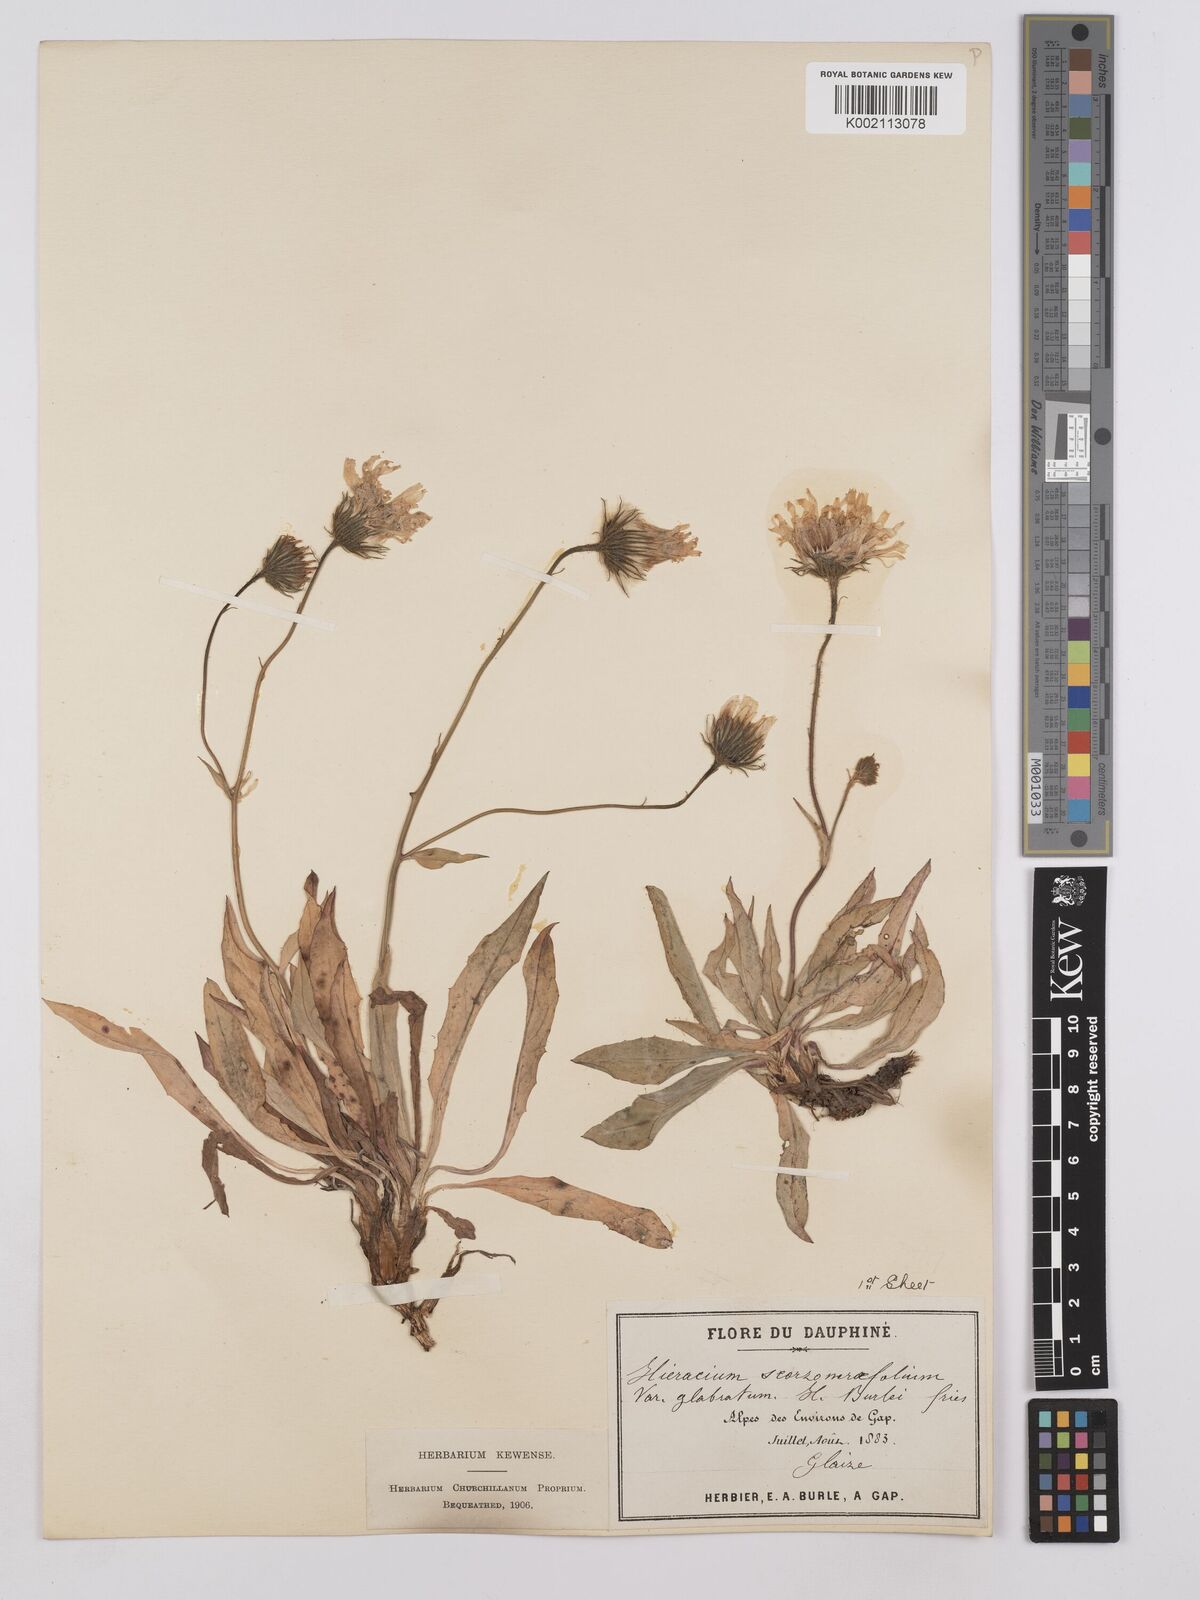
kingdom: Plantae
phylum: Tracheophyta
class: Magnoliopsida
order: Asterales
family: Asteraceae
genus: Hieracium
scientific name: Hieracium bupleuroides
